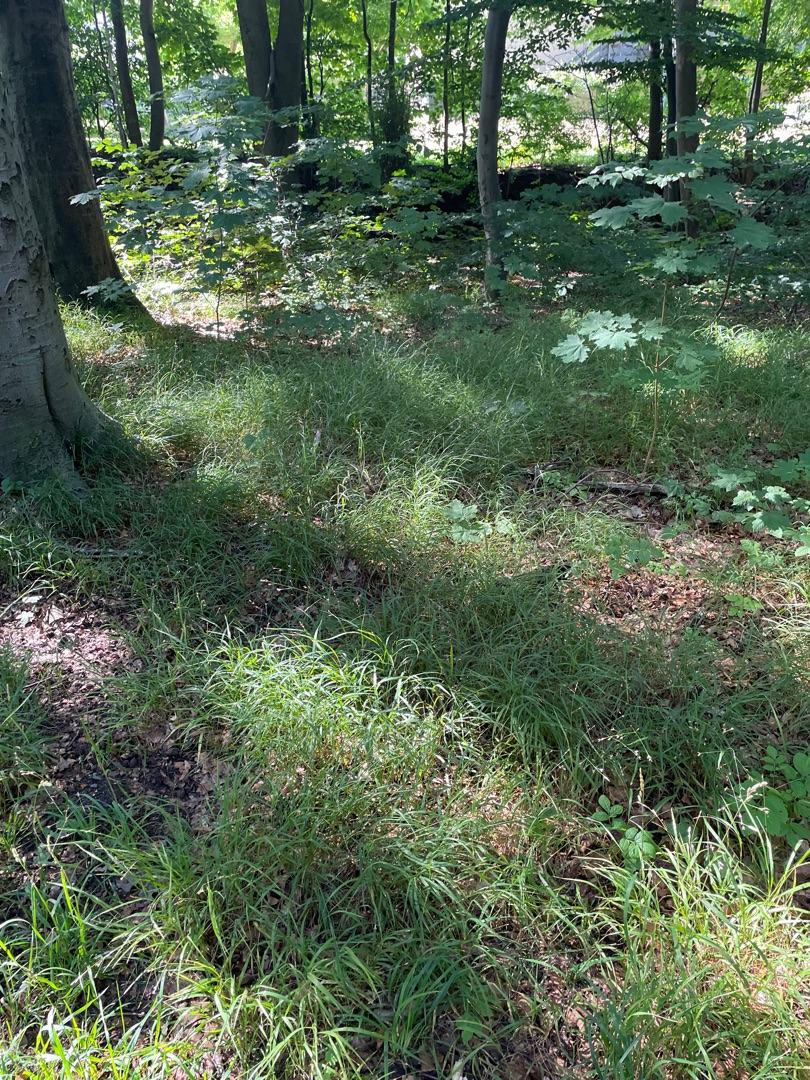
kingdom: Plantae
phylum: Tracheophyta
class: Liliopsida
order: Poales
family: Poaceae
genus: Melica
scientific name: Melica uniflora
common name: Enblomstret flitteraks
